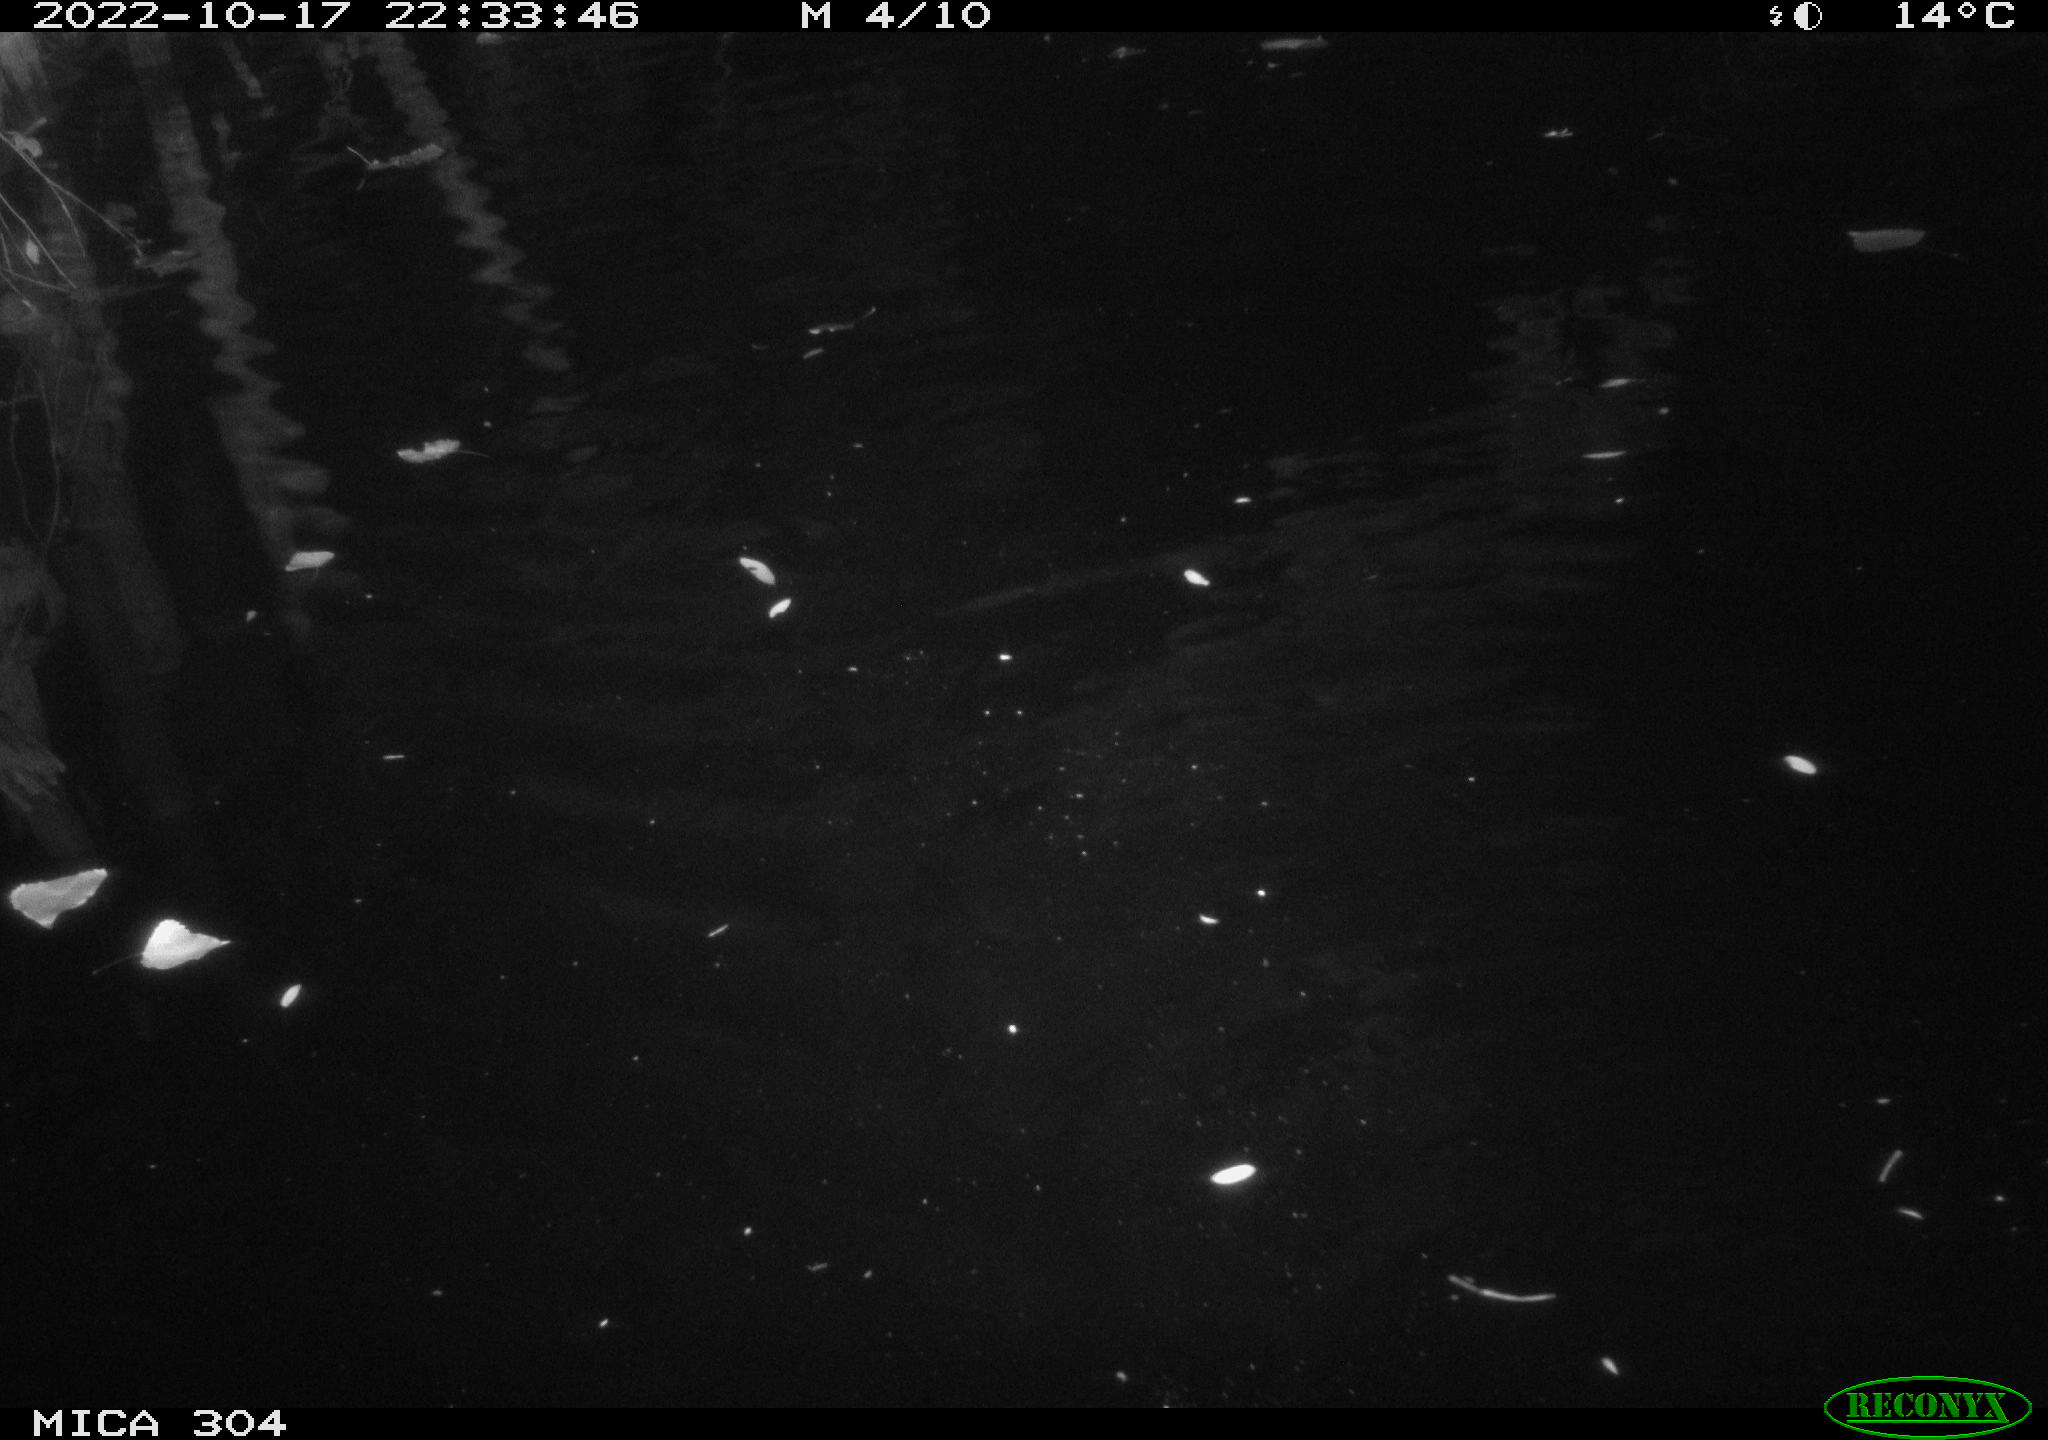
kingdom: Animalia
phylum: Chordata
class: Mammalia
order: Rodentia
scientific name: Rodentia
